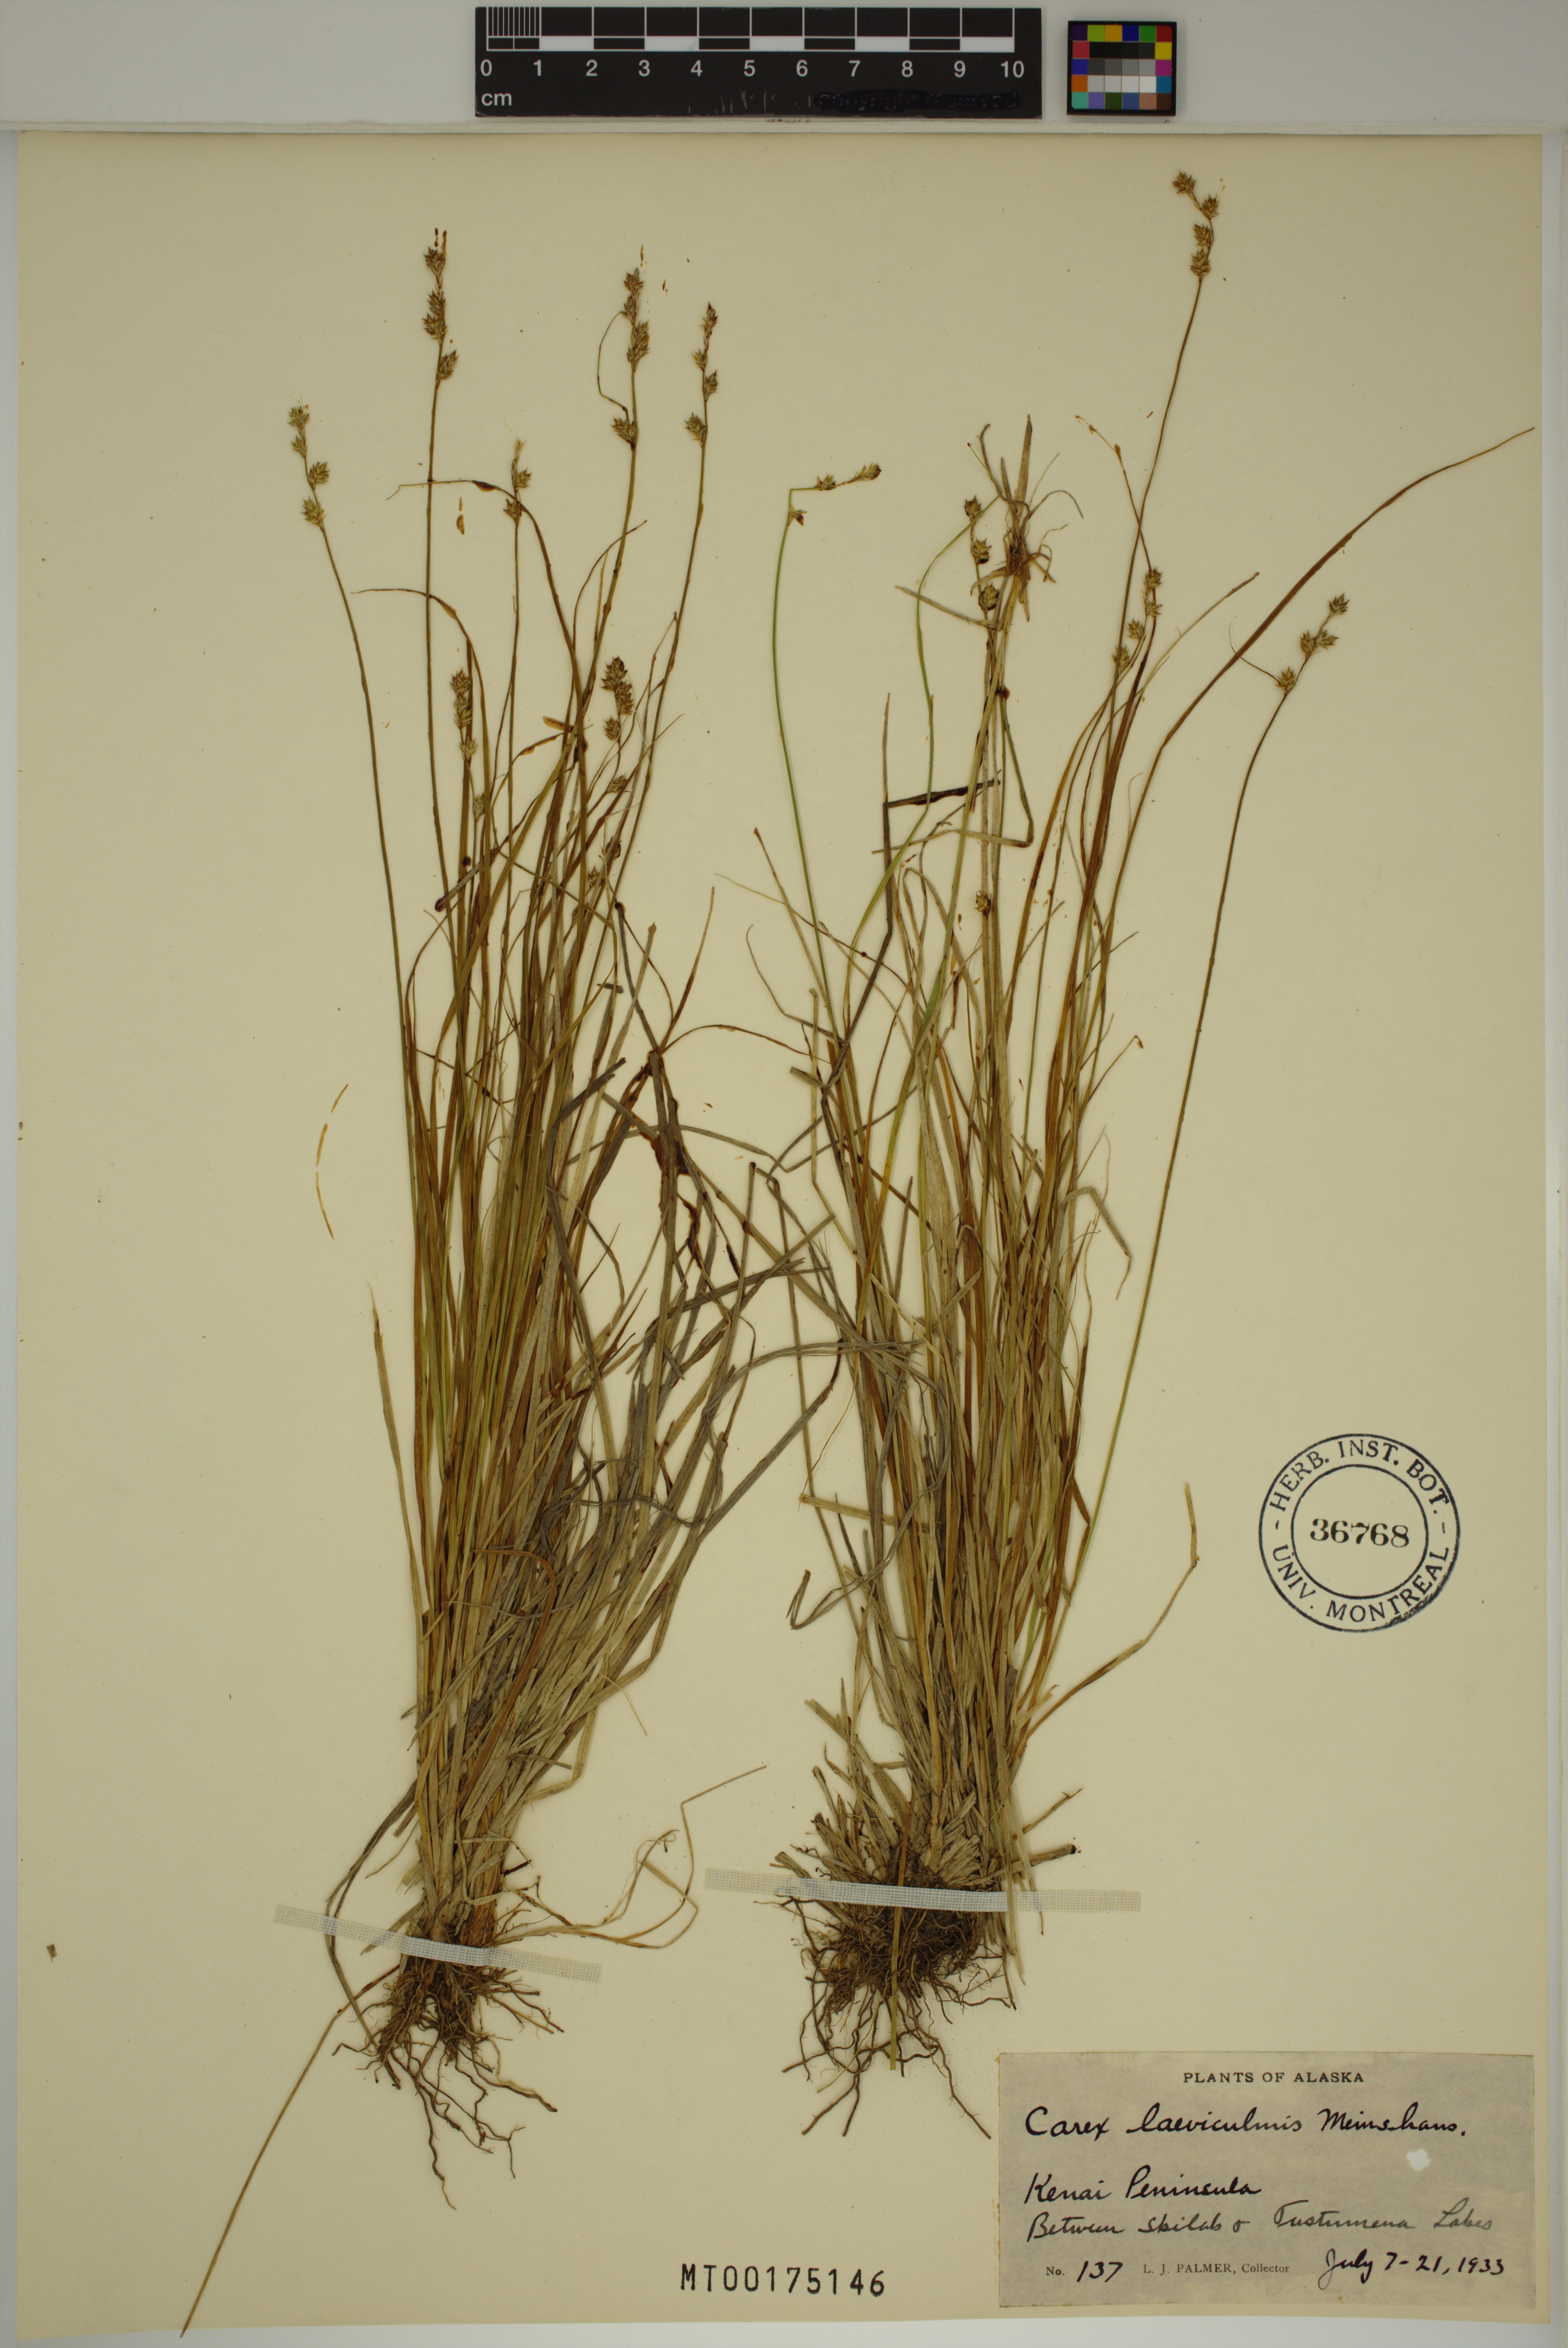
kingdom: Plantae
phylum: Tracheophyta
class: Liliopsida
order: Poales
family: Cyperaceae
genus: Carex
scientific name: Carex laeviculmis
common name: Smooth sedge
